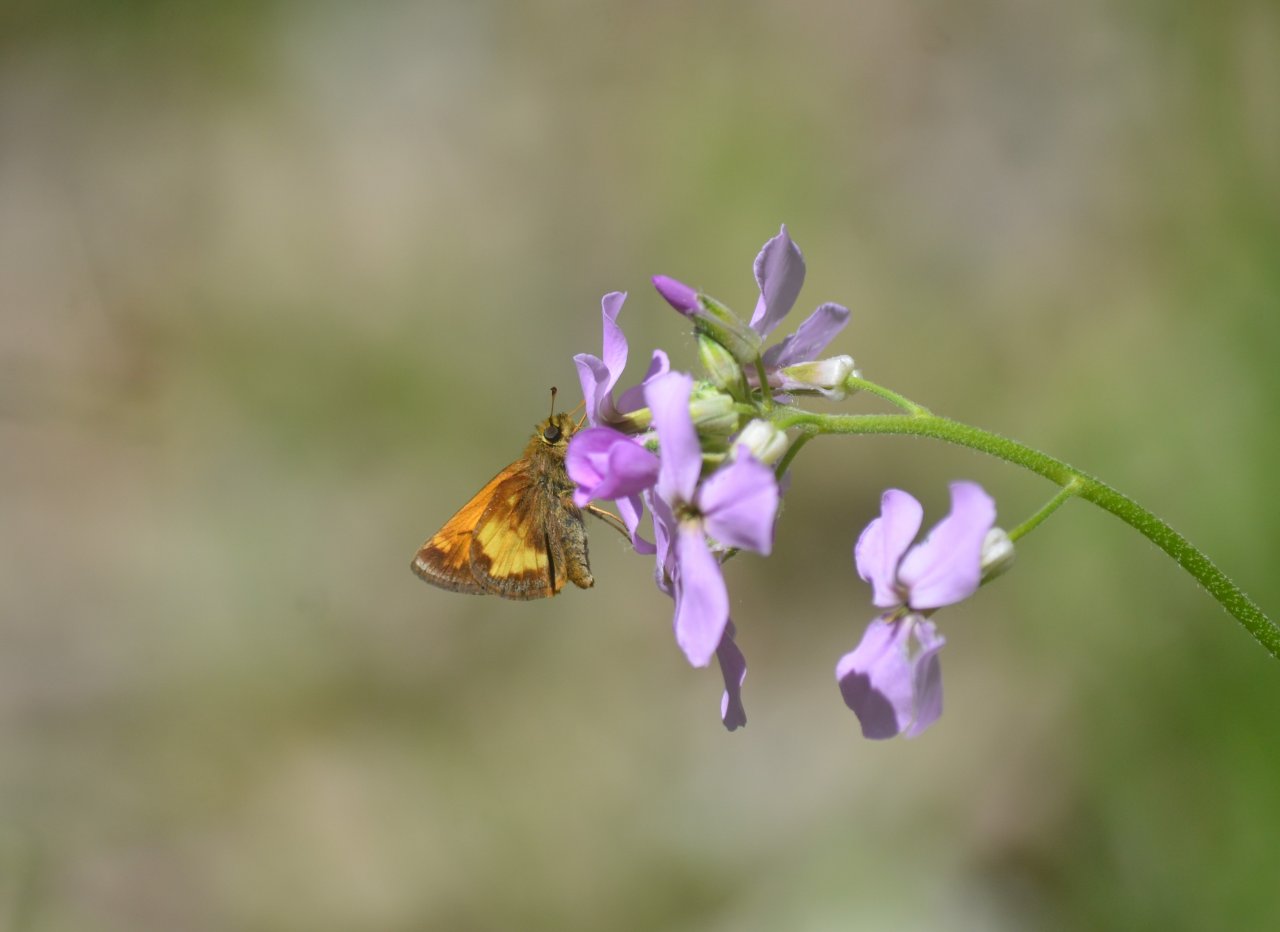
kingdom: Animalia
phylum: Arthropoda
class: Insecta
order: Lepidoptera
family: Hesperiidae
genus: Lon
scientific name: Lon hobomok
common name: Hobomok Skipper
